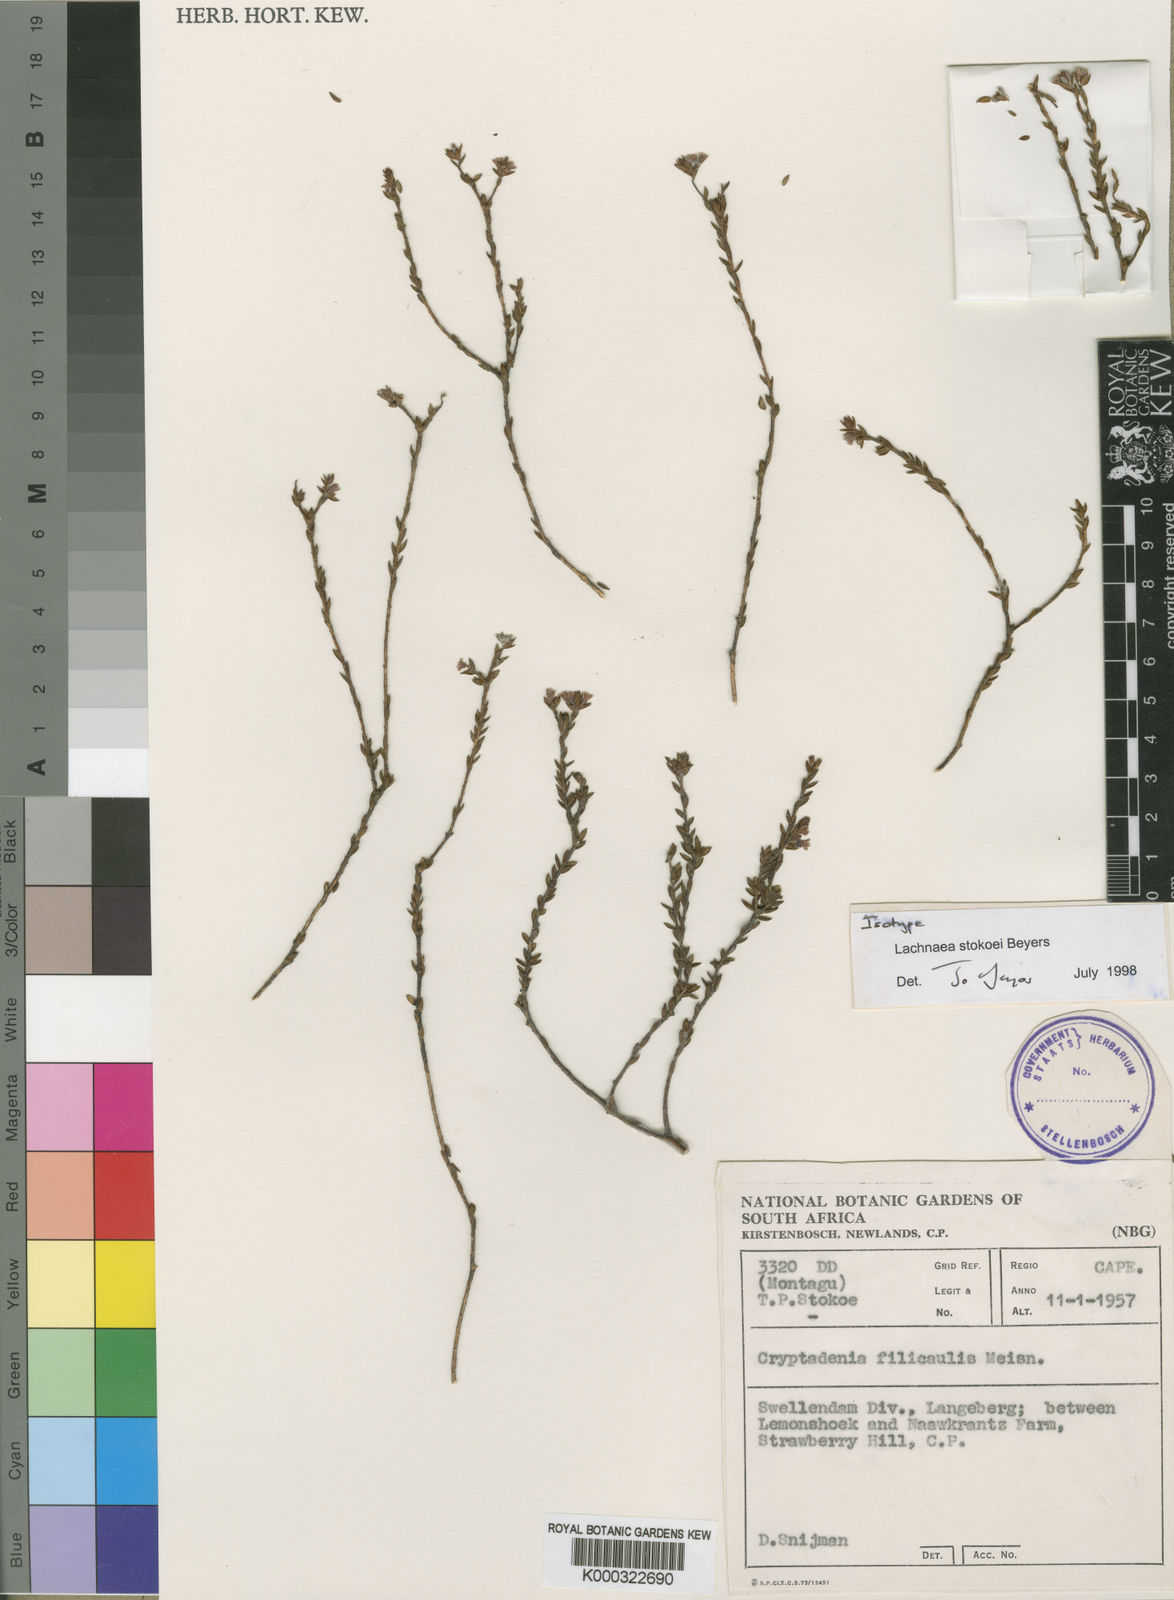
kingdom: Plantae
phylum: Tracheophyta
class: Magnoliopsida
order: Malvales
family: Thymelaeaceae
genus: Lachnaea
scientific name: Lachnaea stokoei
